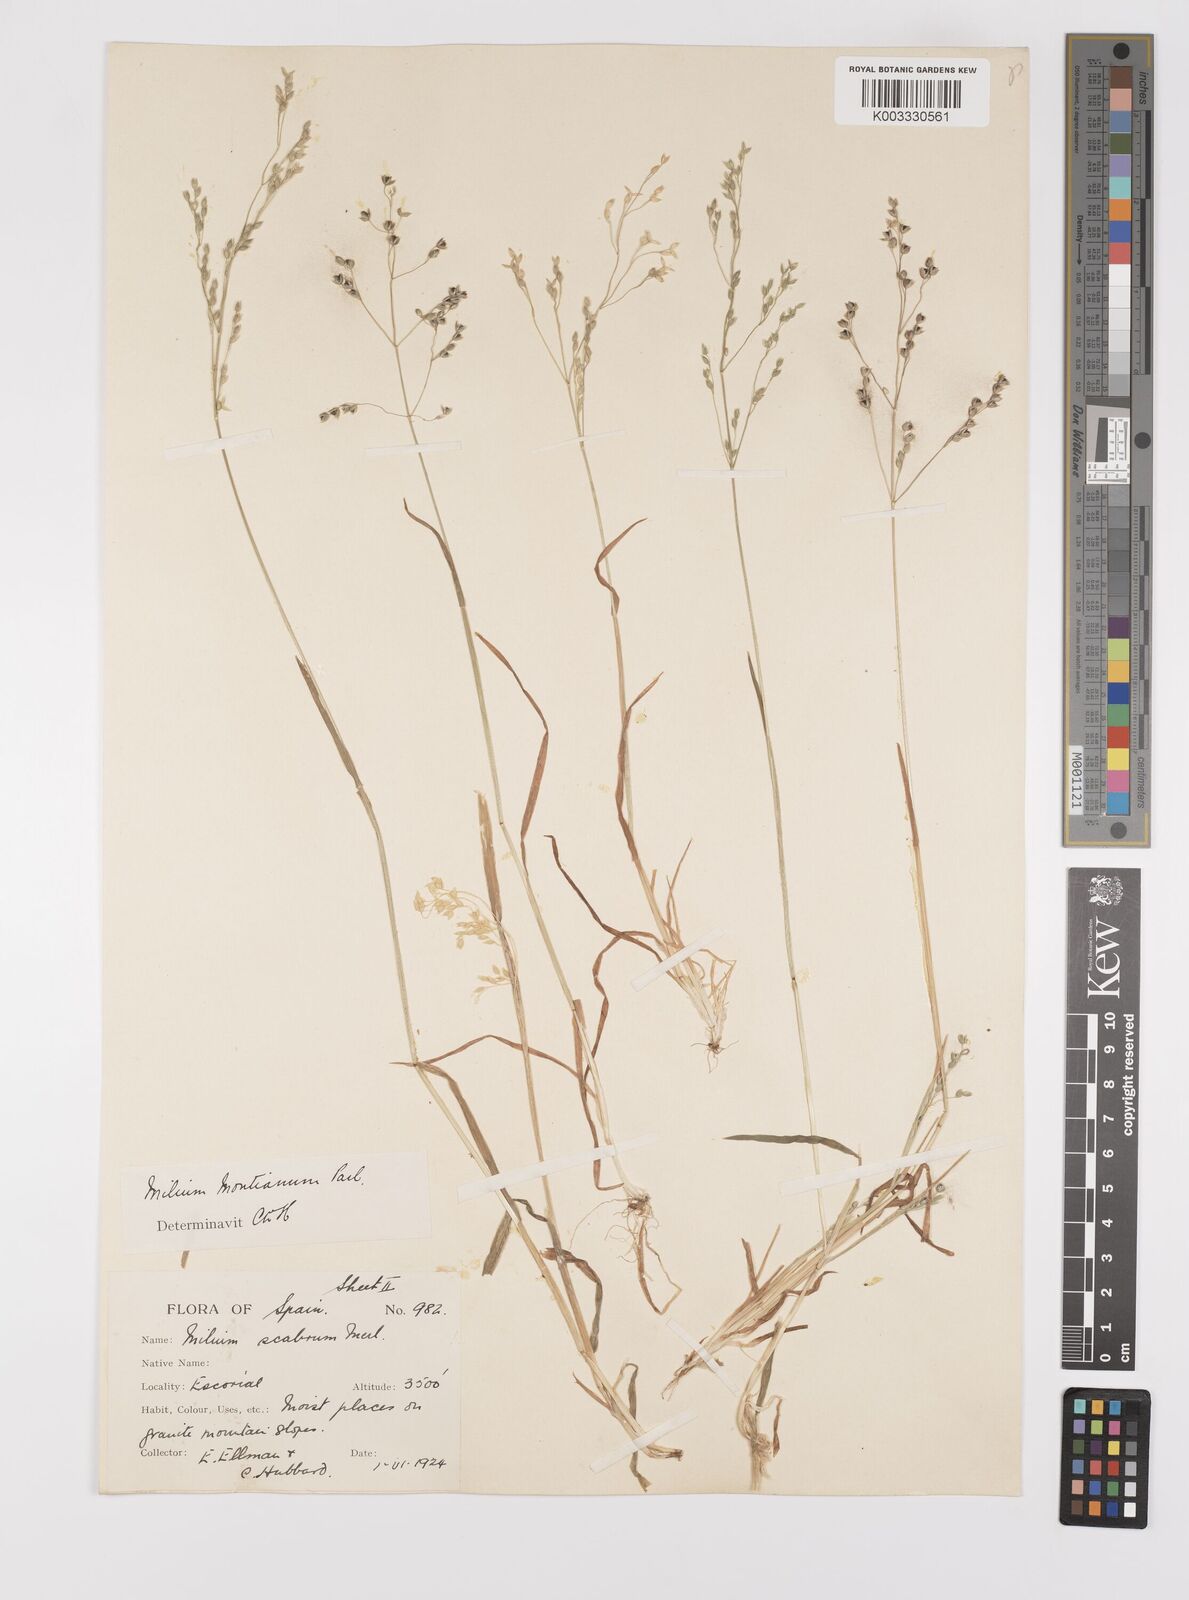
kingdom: Plantae
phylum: Tracheophyta
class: Liliopsida
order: Poales
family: Poaceae
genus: Milium
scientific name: Milium vernale
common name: Early millet
